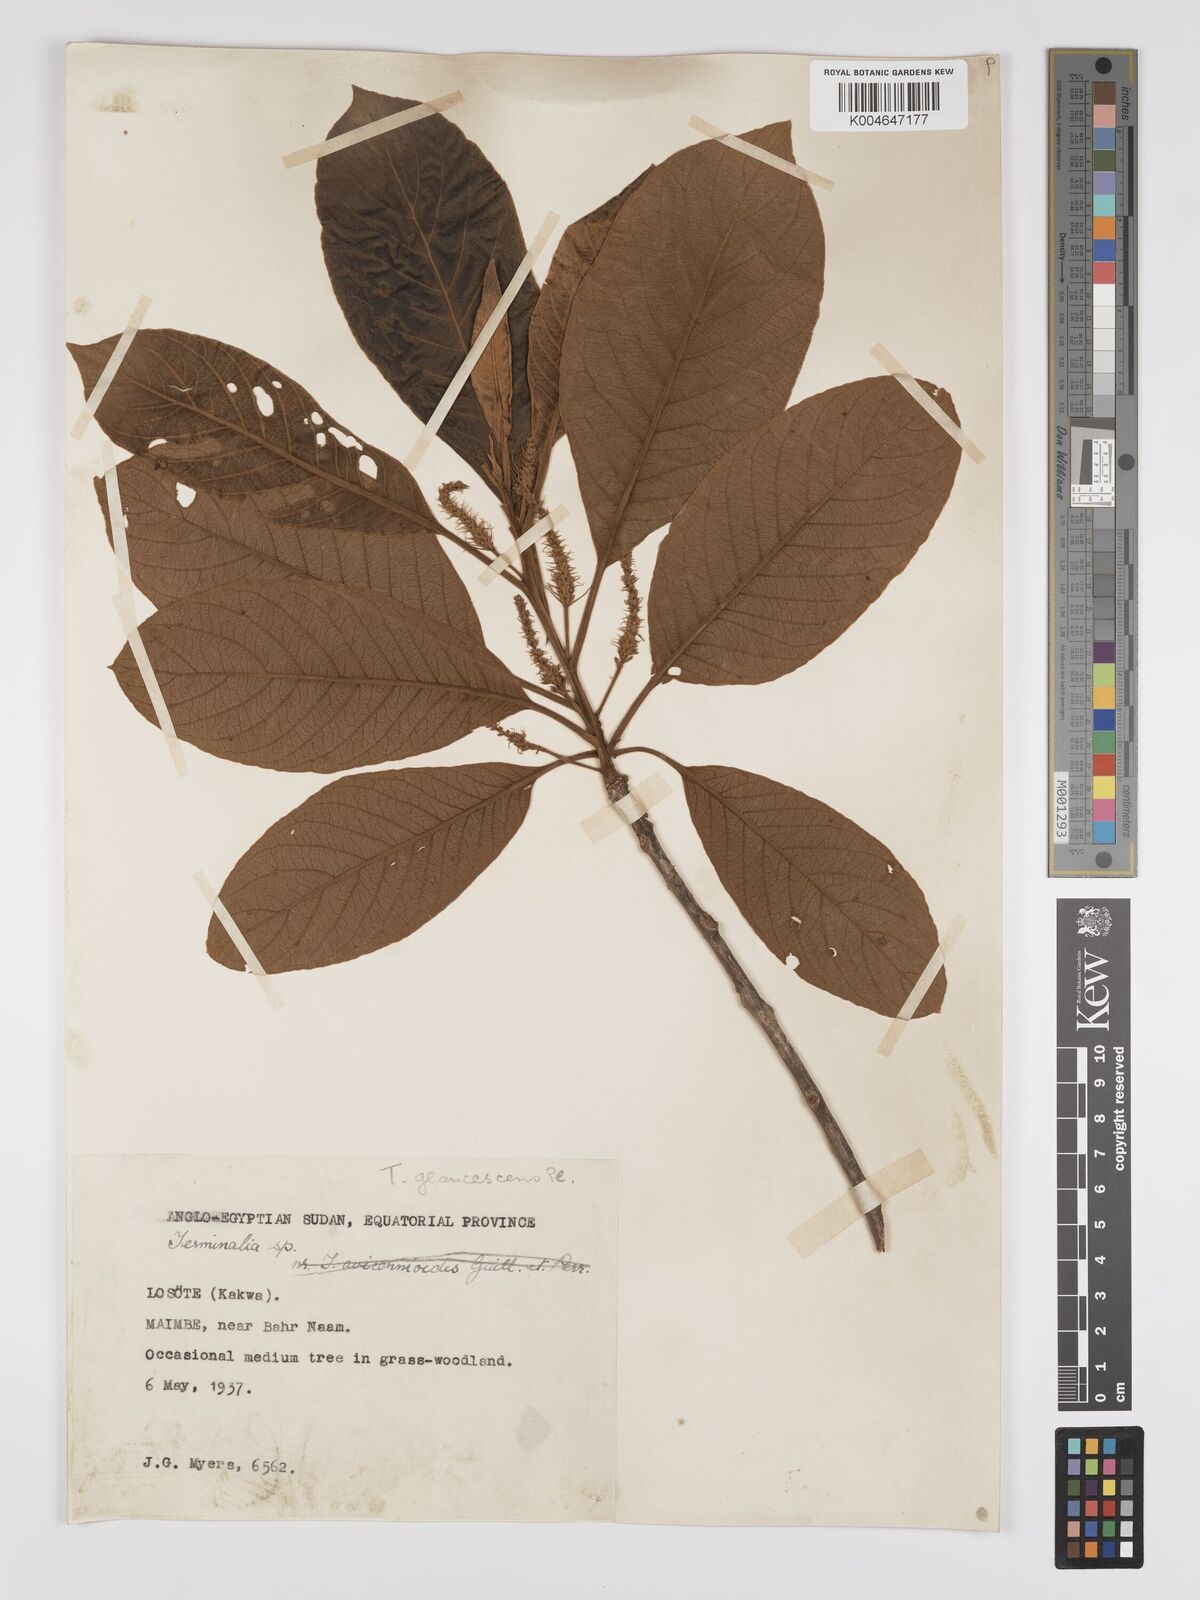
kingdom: Plantae
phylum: Tracheophyta
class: Magnoliopsida
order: Myrtales
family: Combretaceae
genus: Terminalia
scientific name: Terminalia schimperiana
